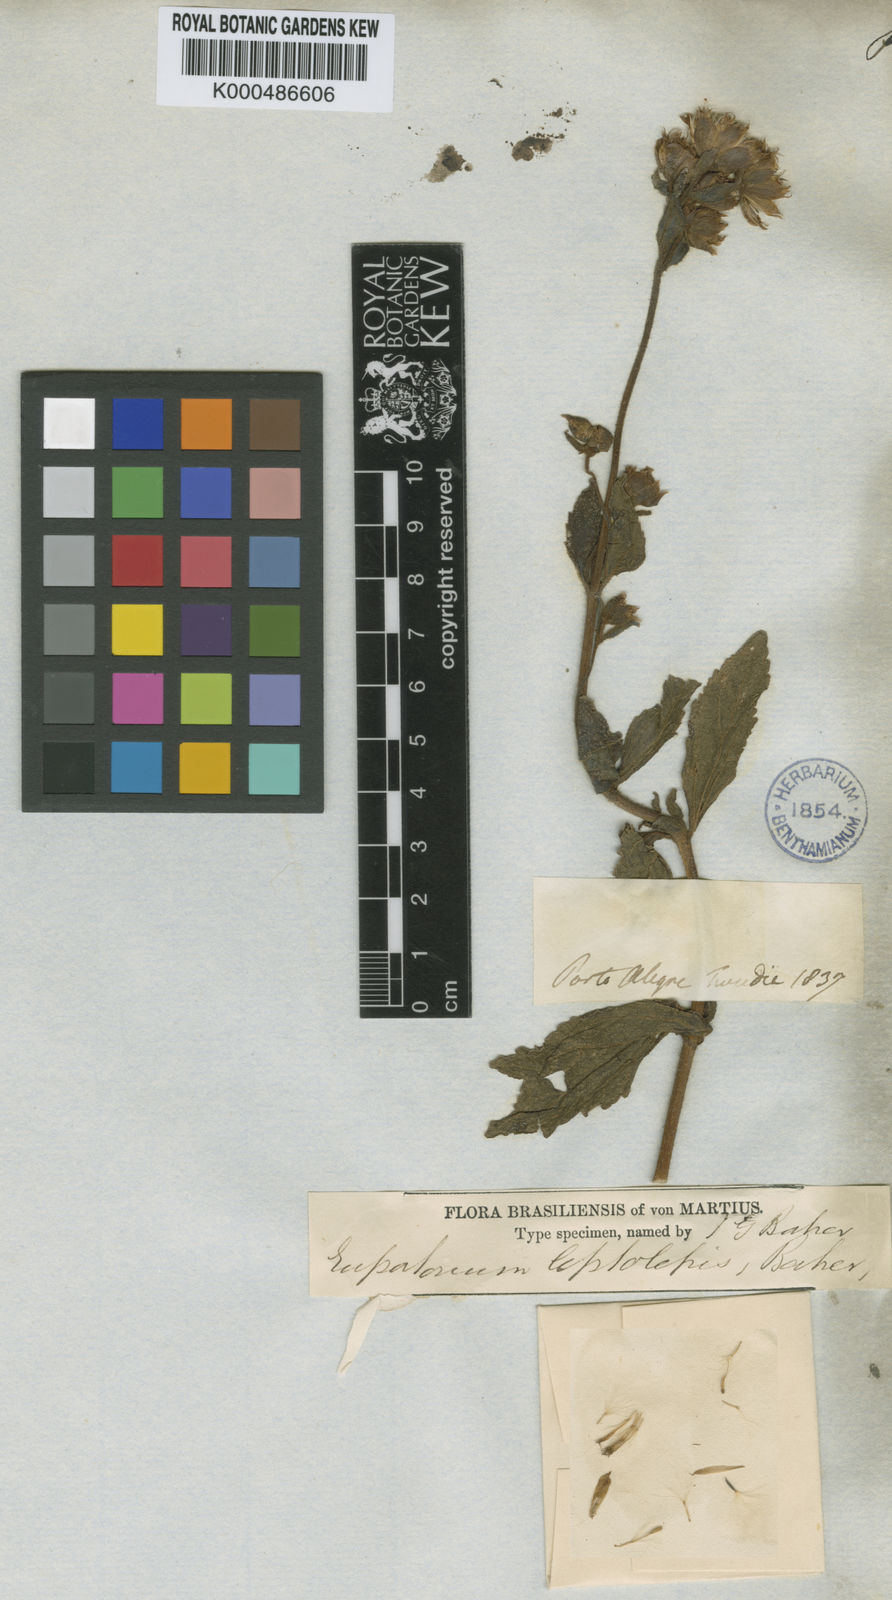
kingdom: Plantae
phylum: Tracheophyta
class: Magnoliopsida
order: Asterales
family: Asteraceae
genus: Heterocondylus
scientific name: Heterocondylus leptolepis
